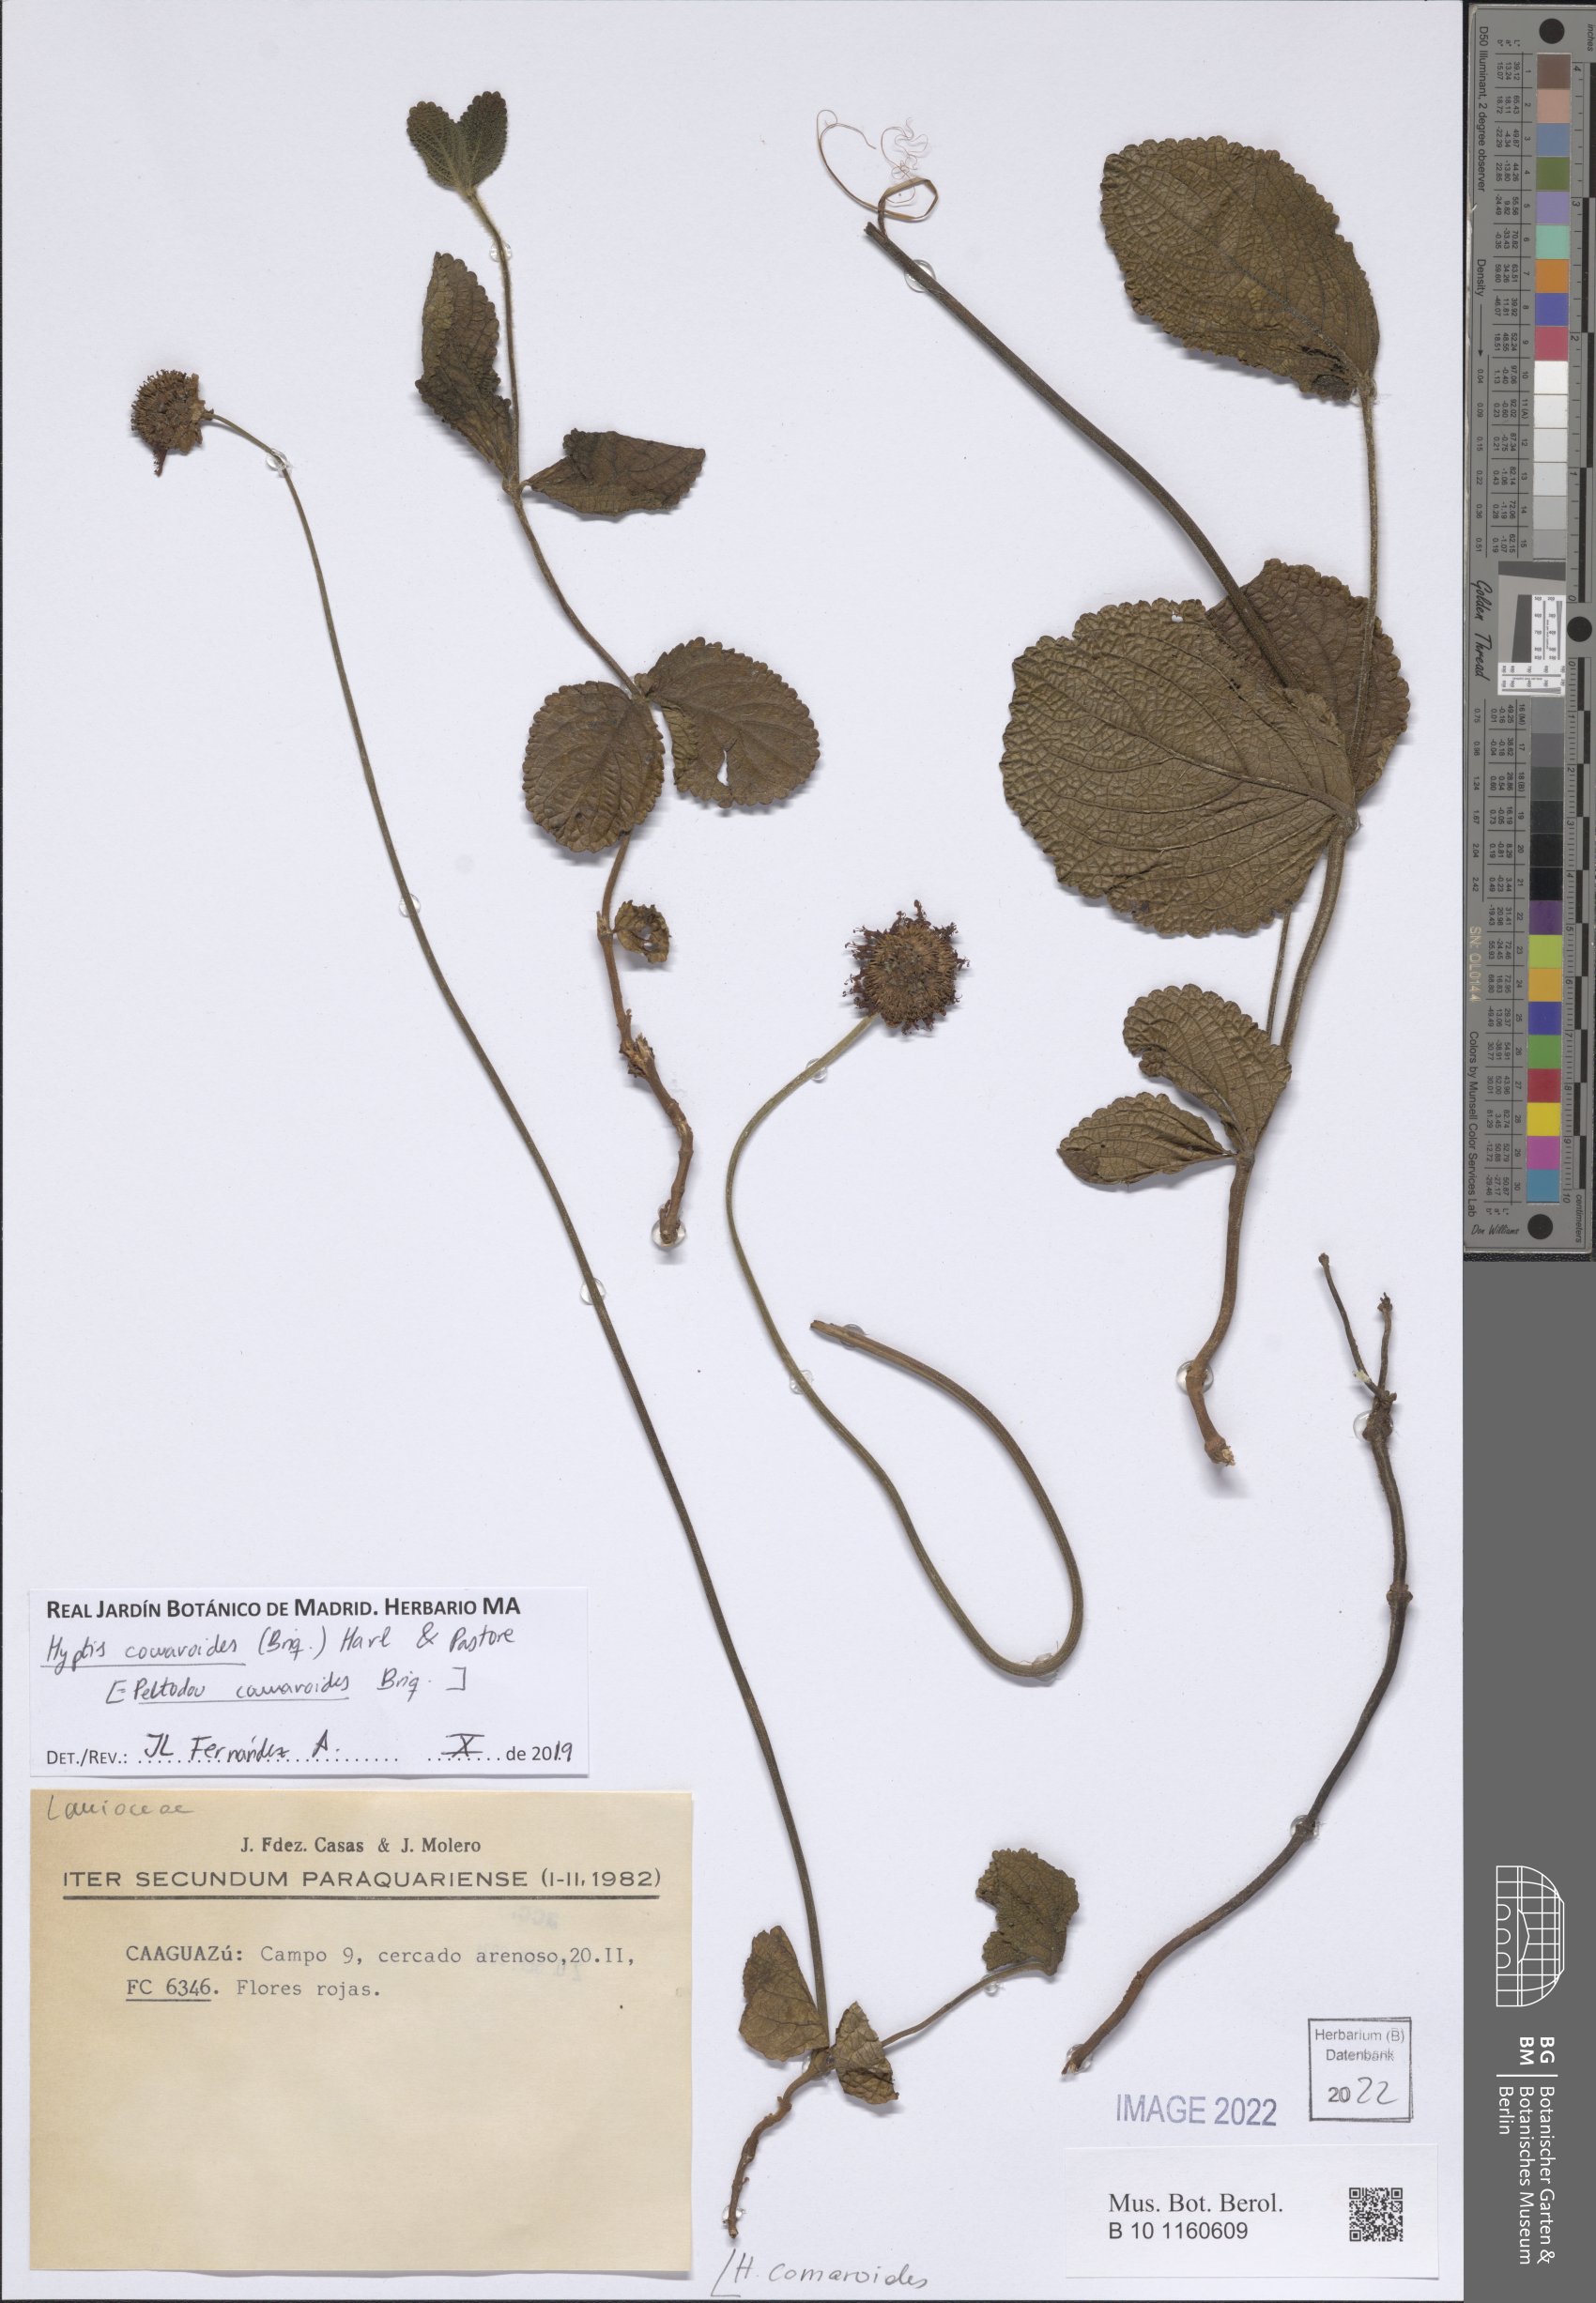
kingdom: Plantae
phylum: Tracheophyta
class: Magnoliopsida
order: Lamiales
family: Lamiaceae
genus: Hyptis
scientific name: Hyptis comaroides
